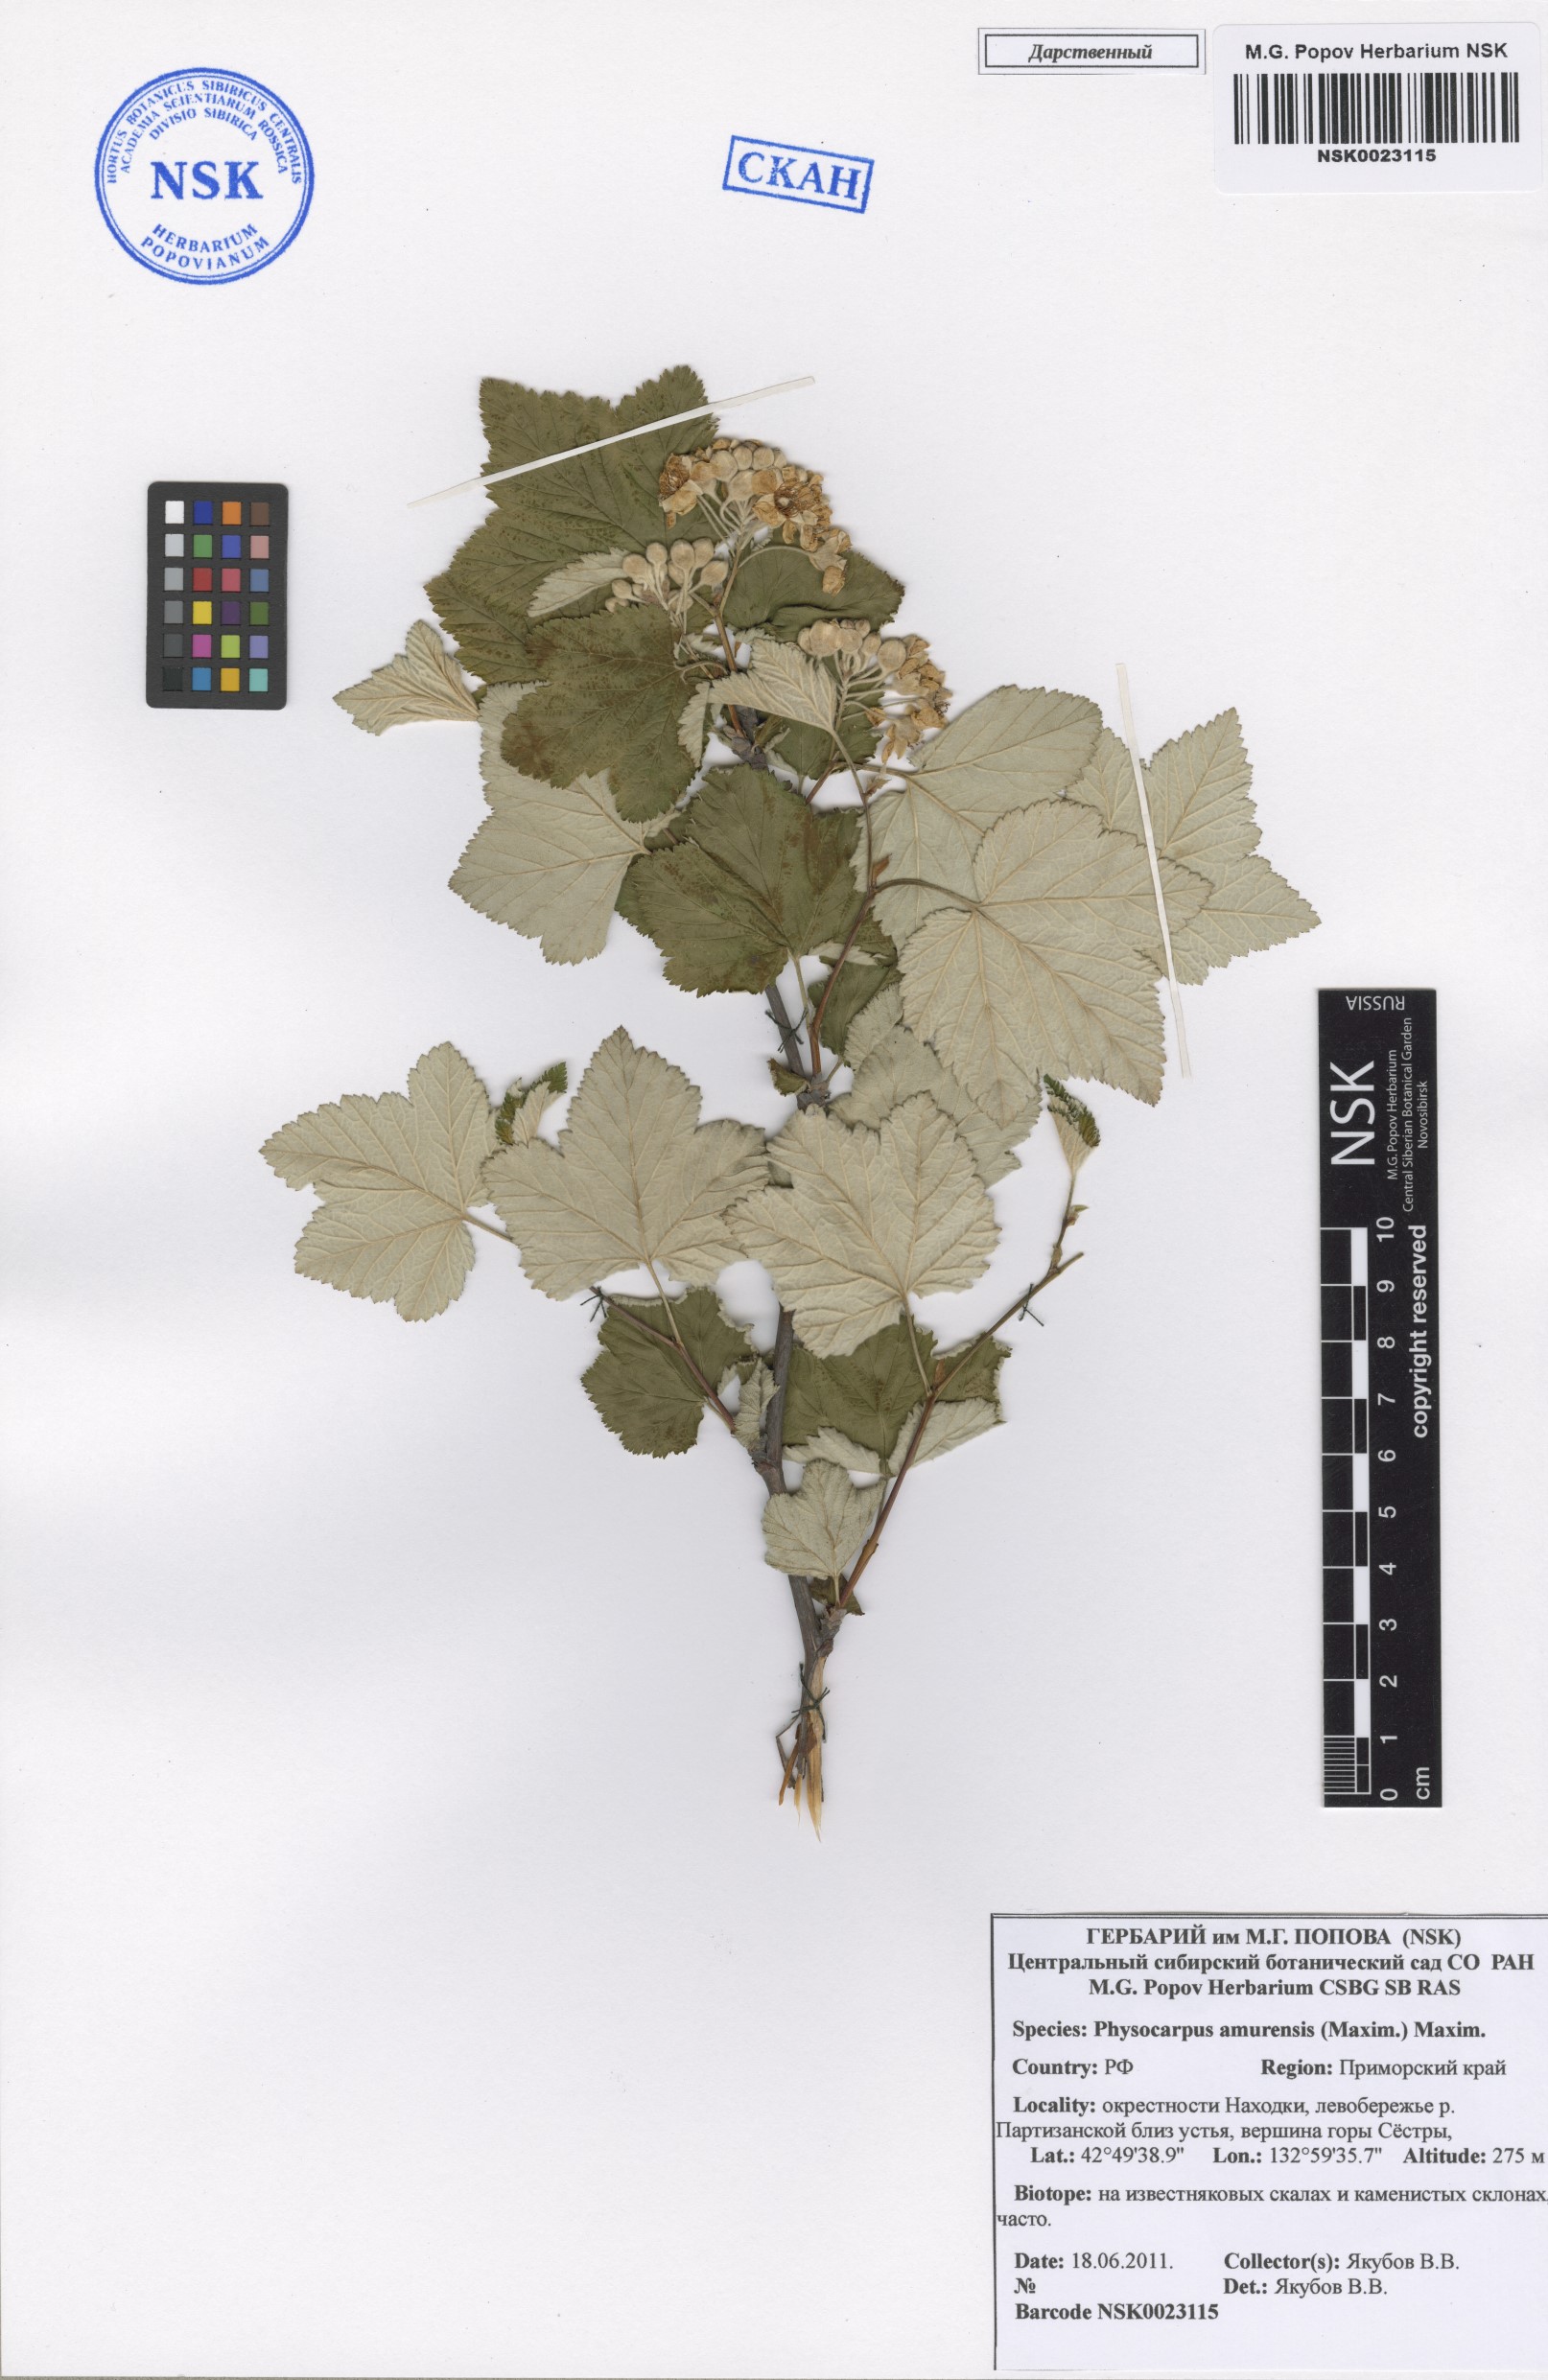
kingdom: Plantae
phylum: Tracheophyta
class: Magnoliopsida
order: Rosales
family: Rosaceae
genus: Physocarpus
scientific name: Physocarpus amurensis
